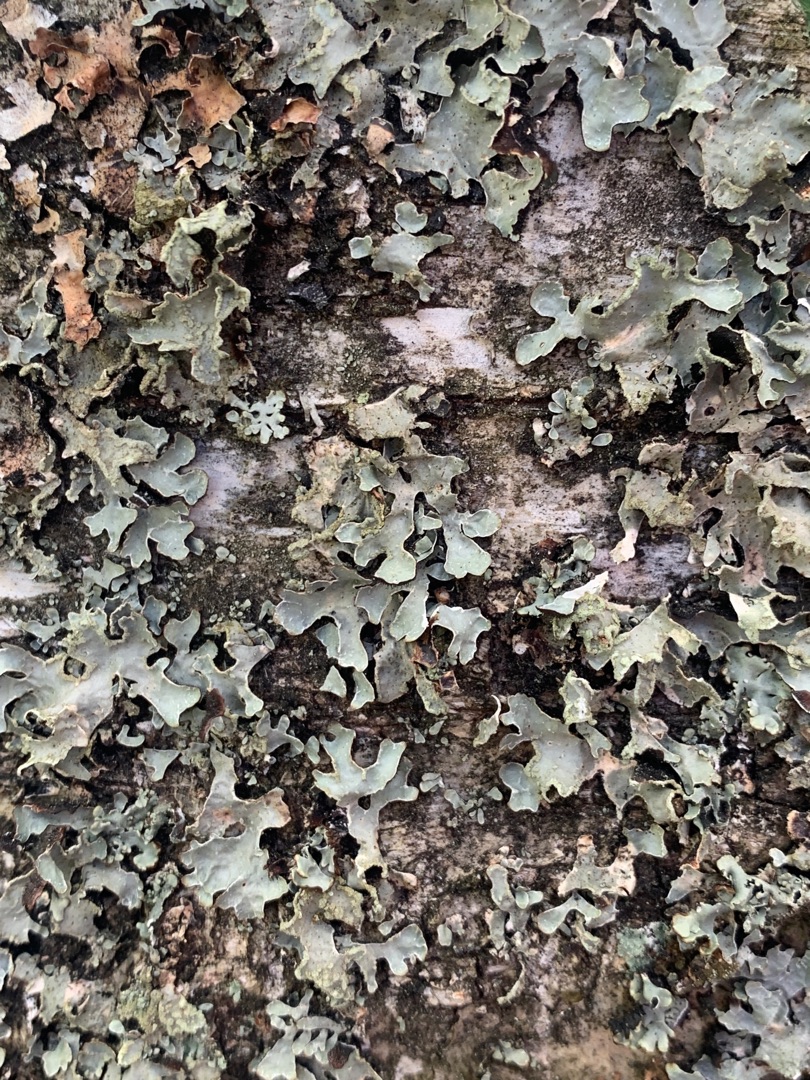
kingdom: Fungi
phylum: Ascomycota
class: Lecanoromycetes
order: Lecanorales
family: Parmeliaceae
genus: Parmelia
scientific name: Parmelia sulcata
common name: Rynket skållav
